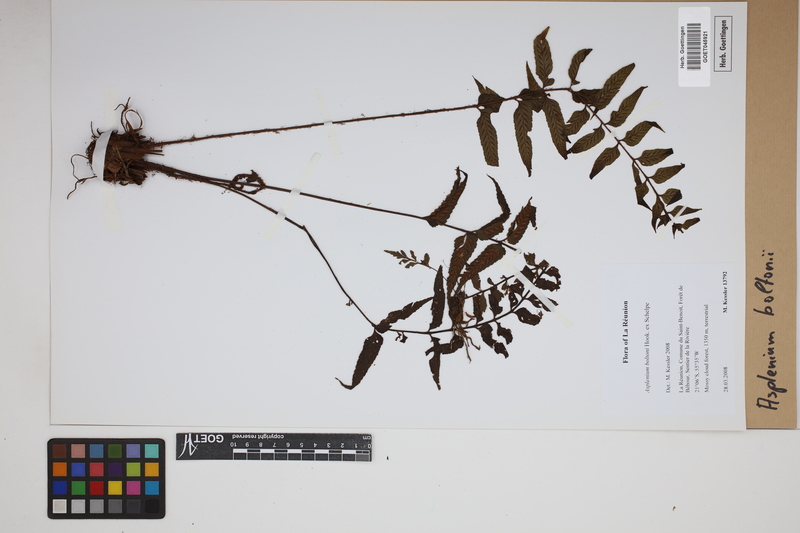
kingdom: Plantae
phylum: Tracheophyta
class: Polypodiopsida
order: Polypodiales
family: Aspleniaceae
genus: Asplenium
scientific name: Asplenium boltonii
